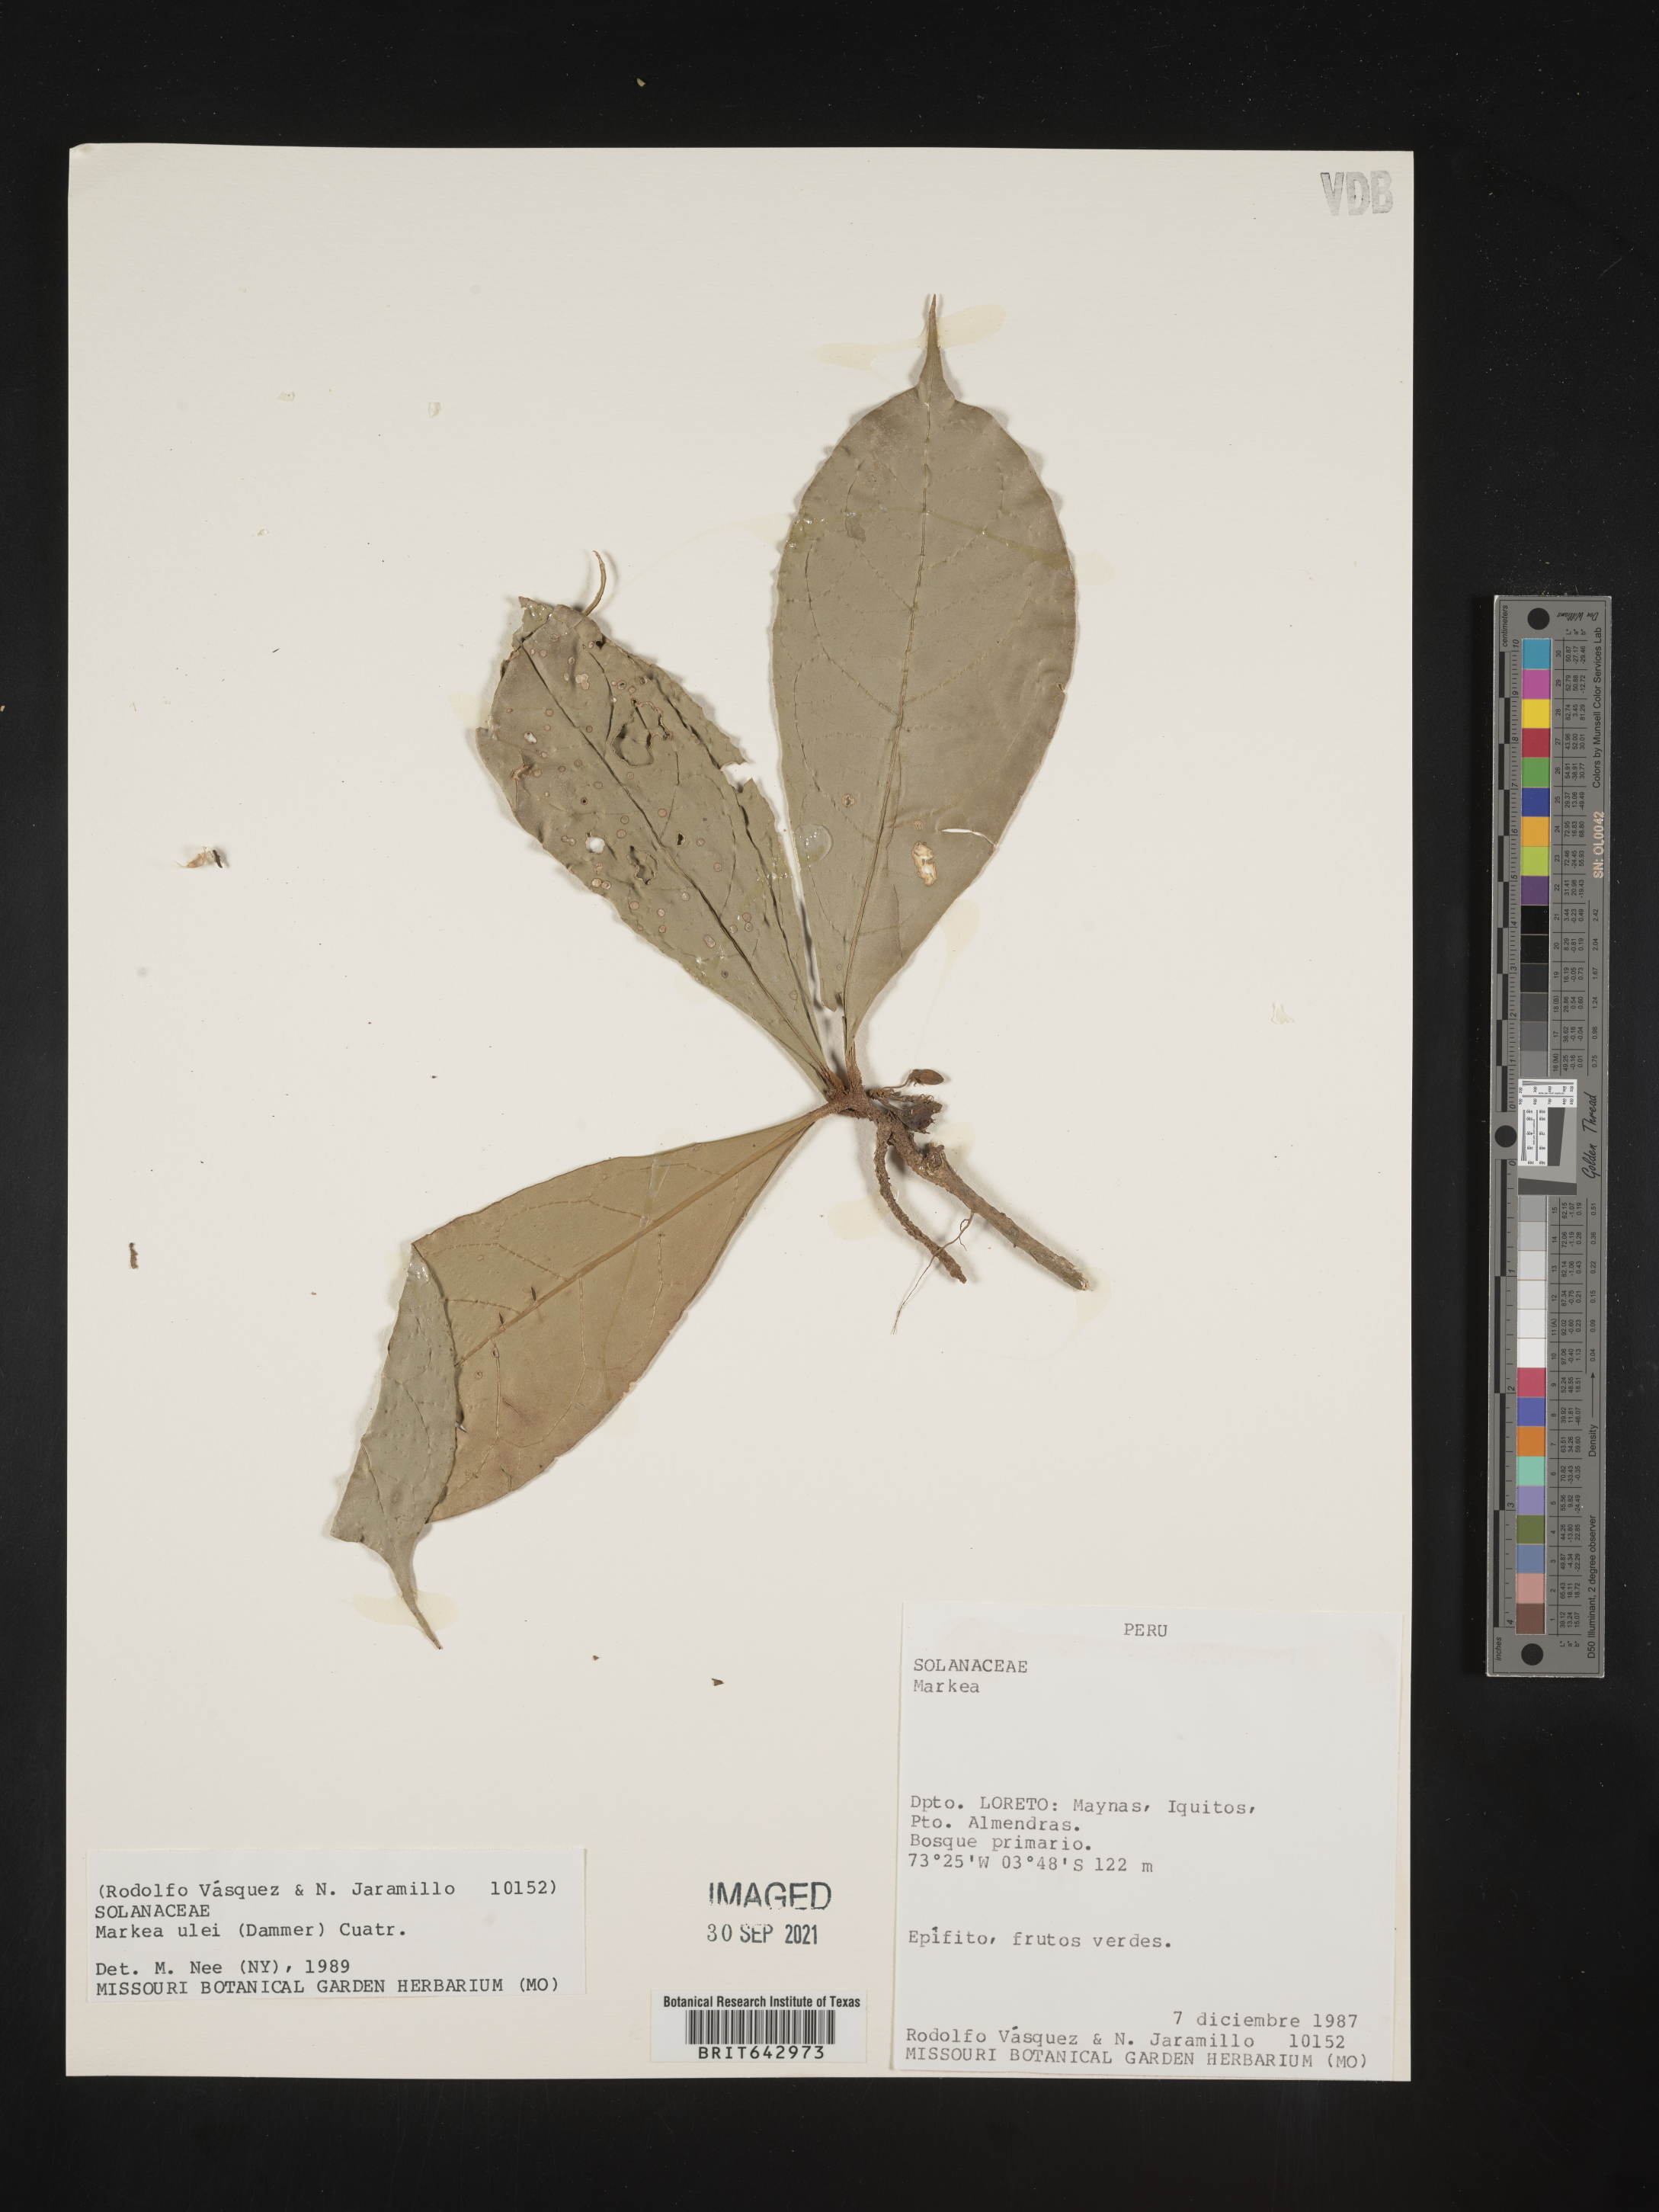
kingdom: Plantae
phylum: Tracheophyta
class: Magnoliopsida
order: Solanales
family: Solanaceae
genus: Markea
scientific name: Markea
